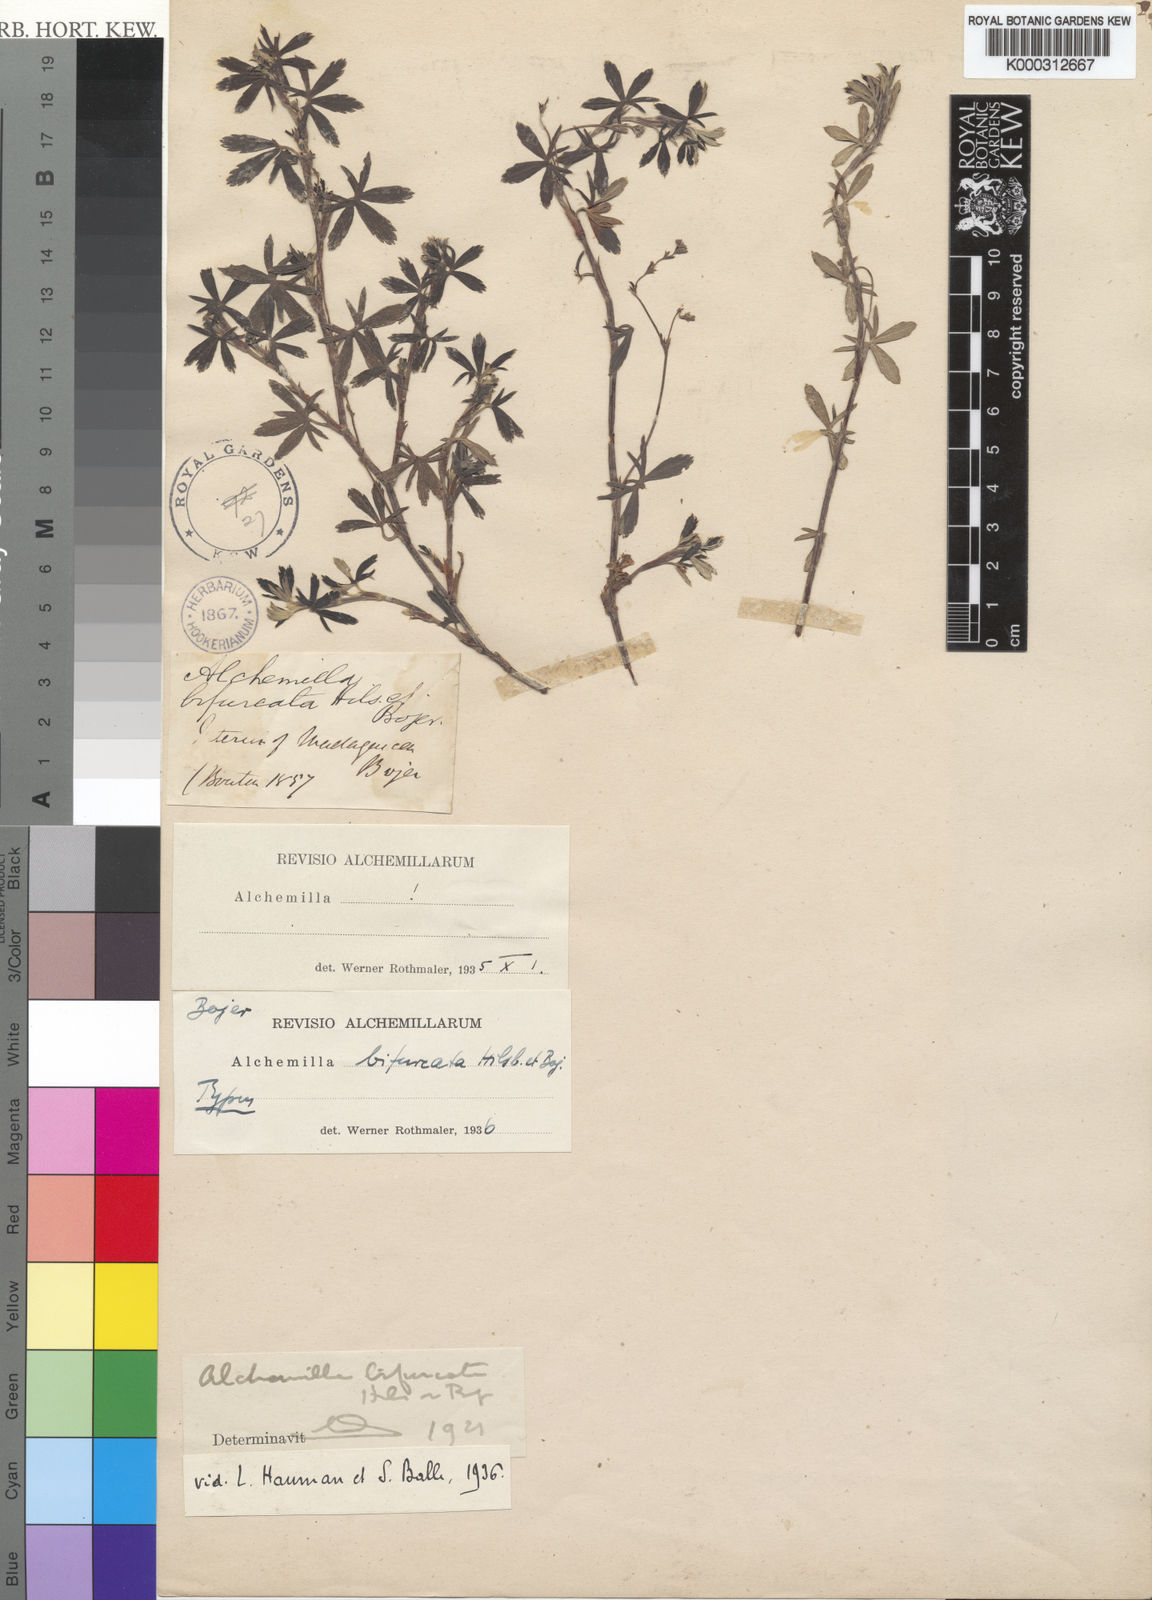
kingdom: Plantae
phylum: Tracheophyta
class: Magnoliopsida
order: Rosales
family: Rosaceae
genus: Alchemilla
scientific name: Alchemilla
